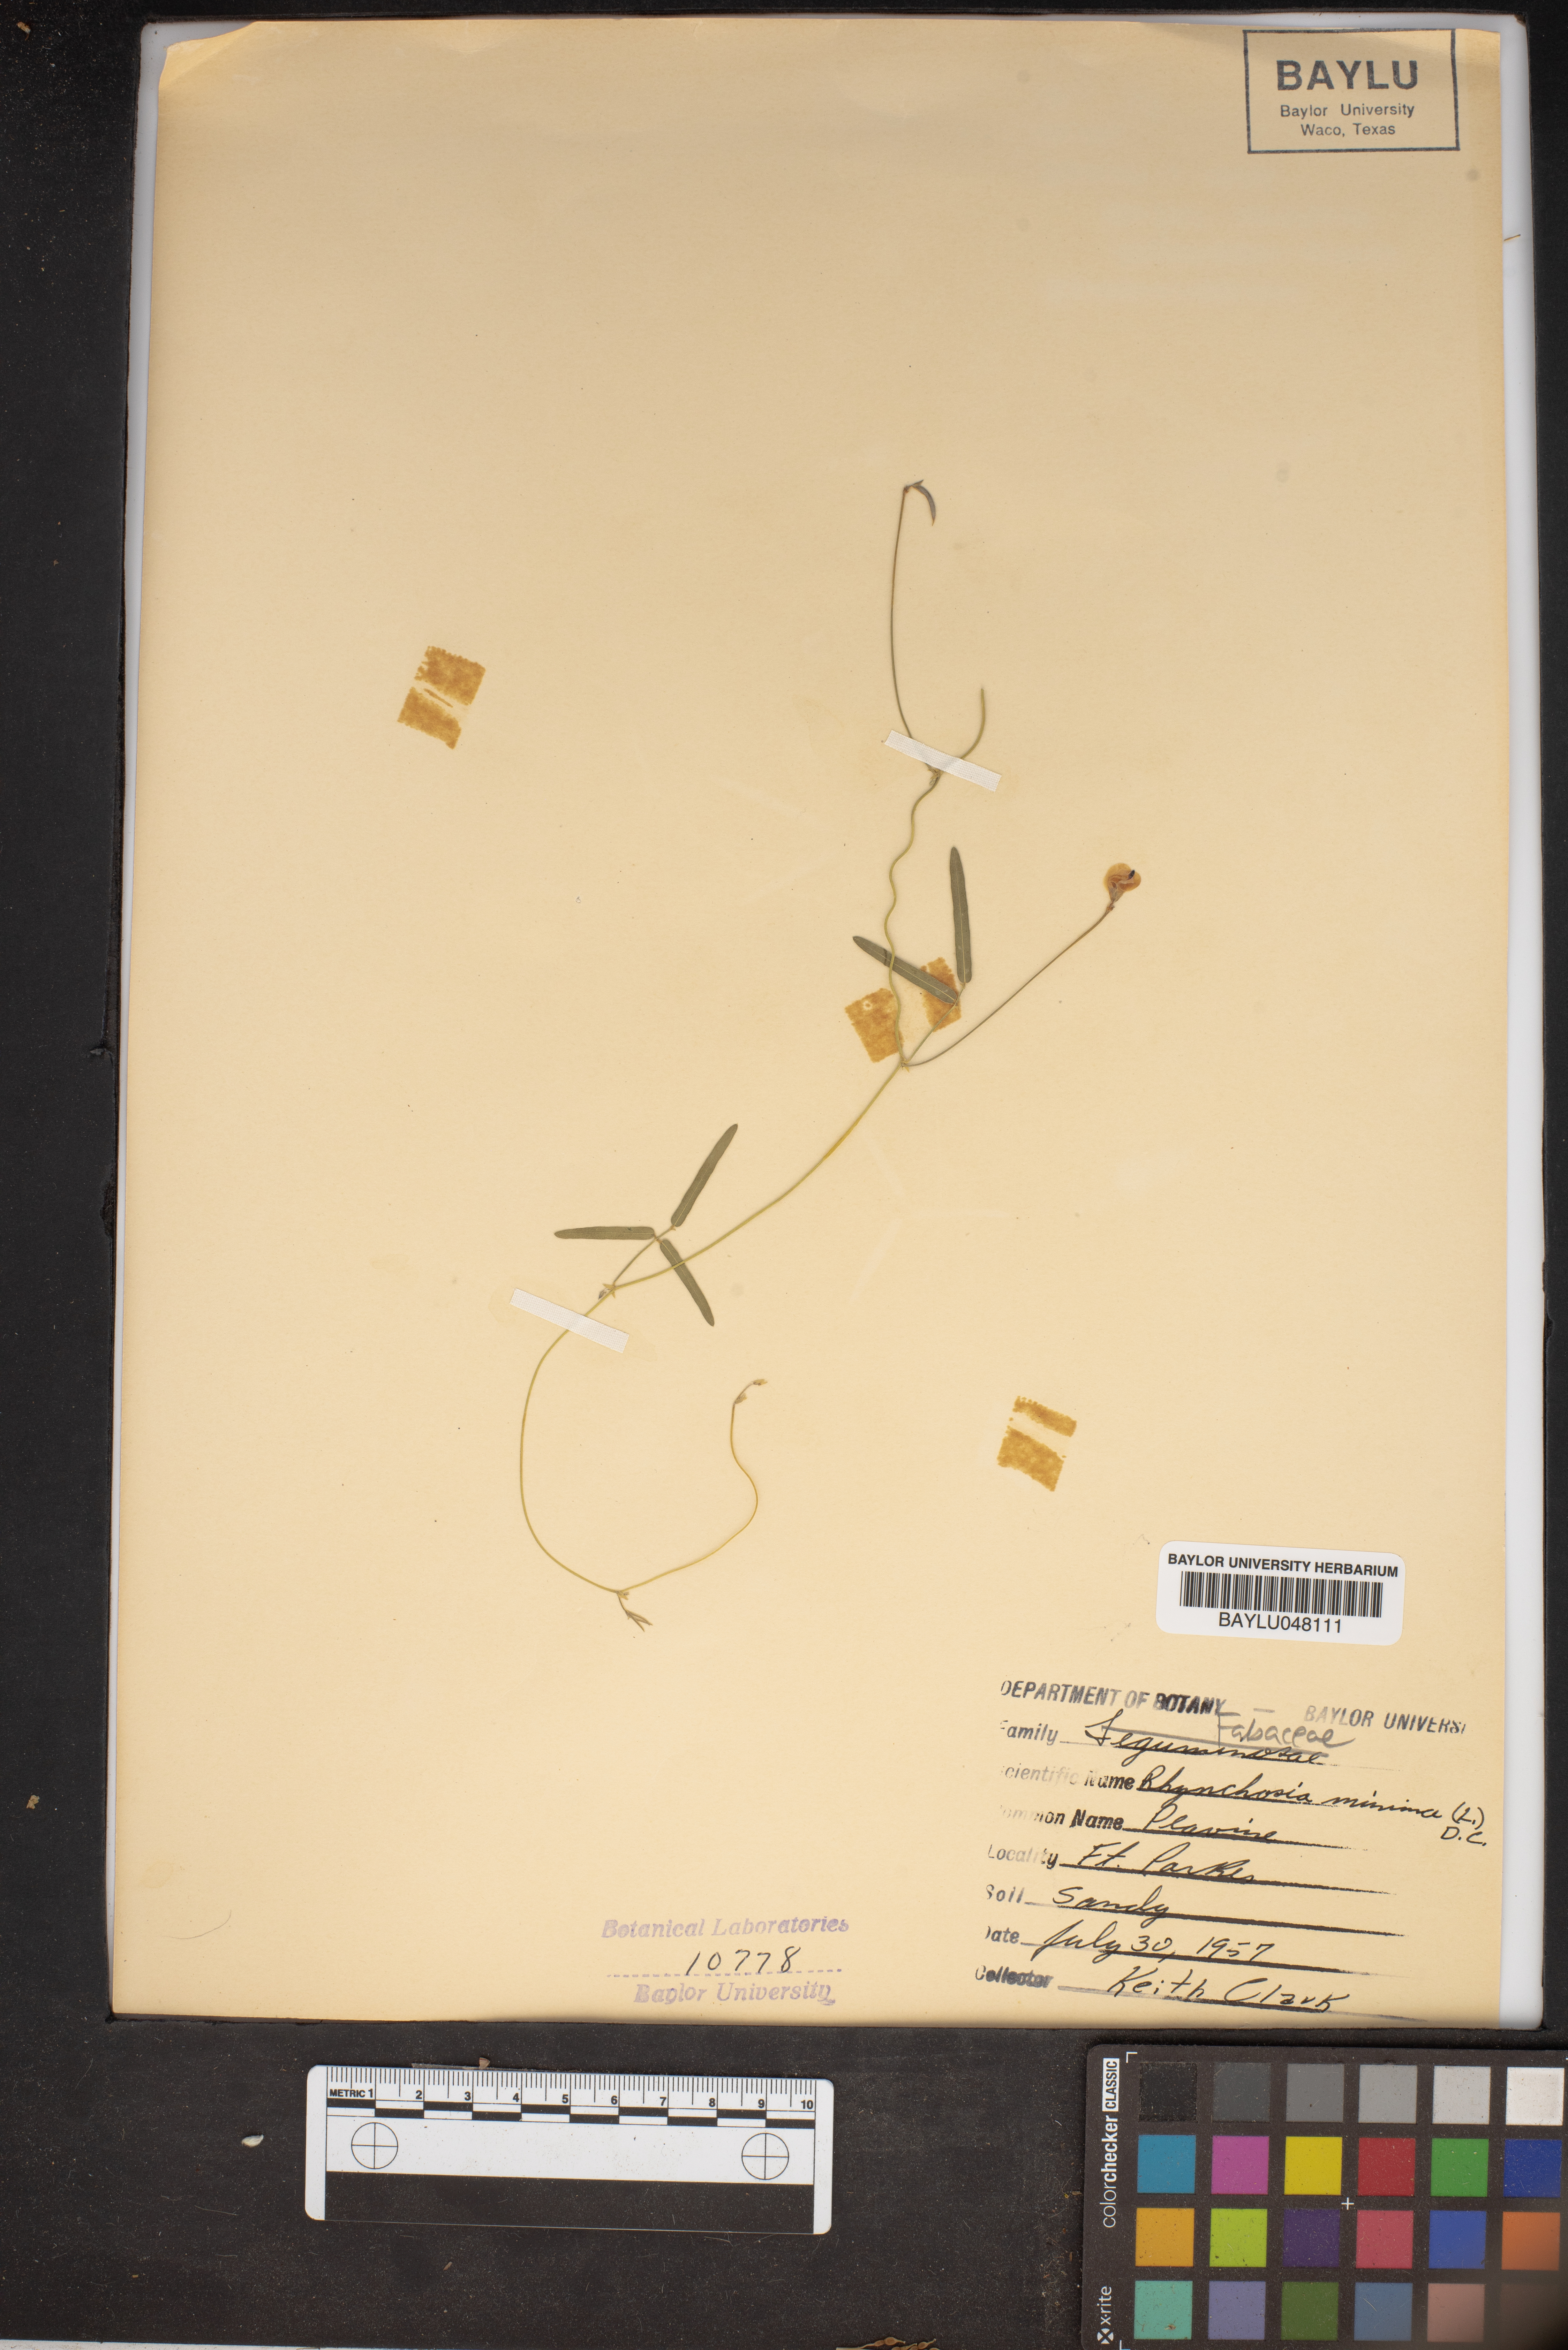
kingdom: Plantae
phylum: Tracheophyta
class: Magnoliopsida
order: Fabales
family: Fabaceae
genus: Rhynchosia
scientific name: Rhynchosia minima
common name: Least snoutbean
